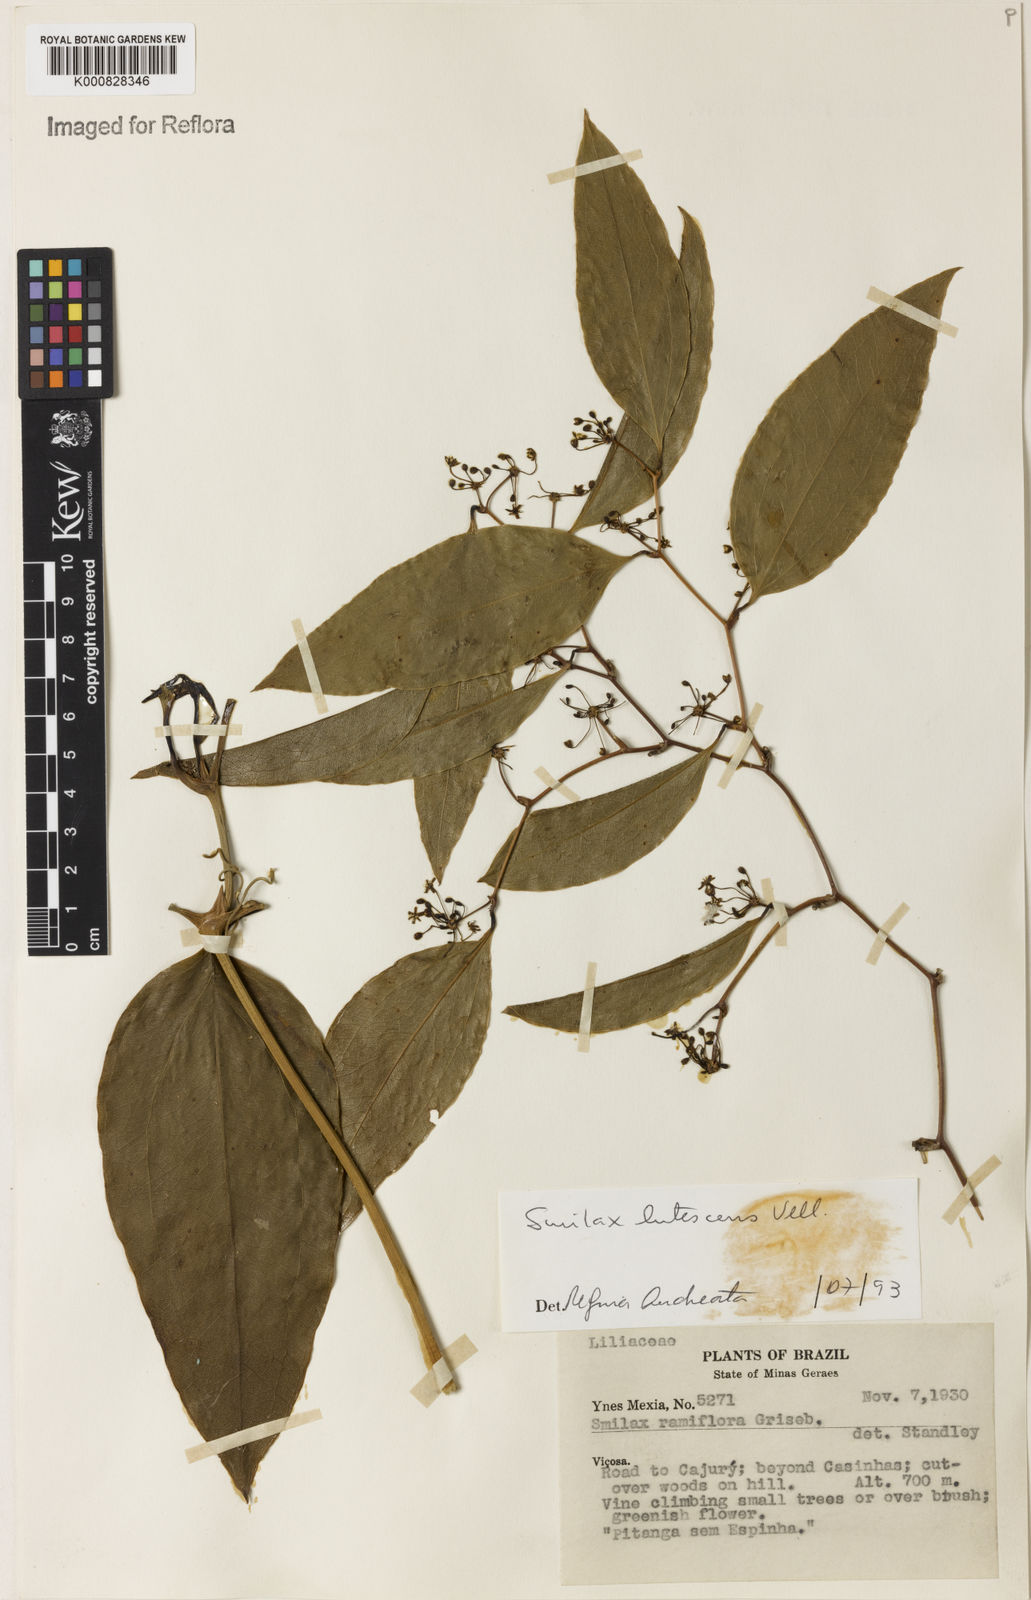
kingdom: Plantae
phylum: Tracheophyta
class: Liliopsida
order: Liliales
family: Smilacaceae
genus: Smilax
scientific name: Smilax lutescens
